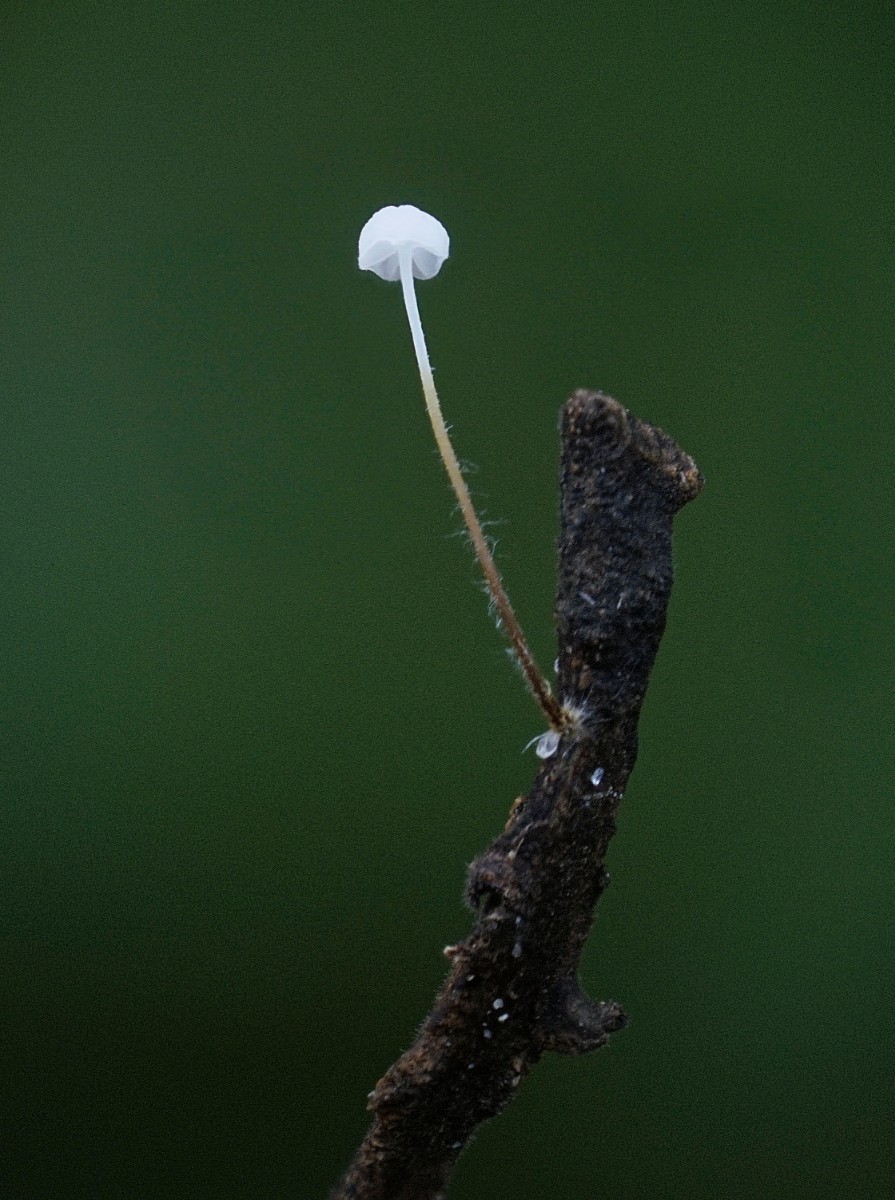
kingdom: Fungi
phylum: Basidiomycota
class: Agaricomycetes
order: Agaricales
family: Physalacriaceae
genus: Rhizomarasmius
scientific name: Rhizomarasmius setosus
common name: bøgeblads-bruskhat
